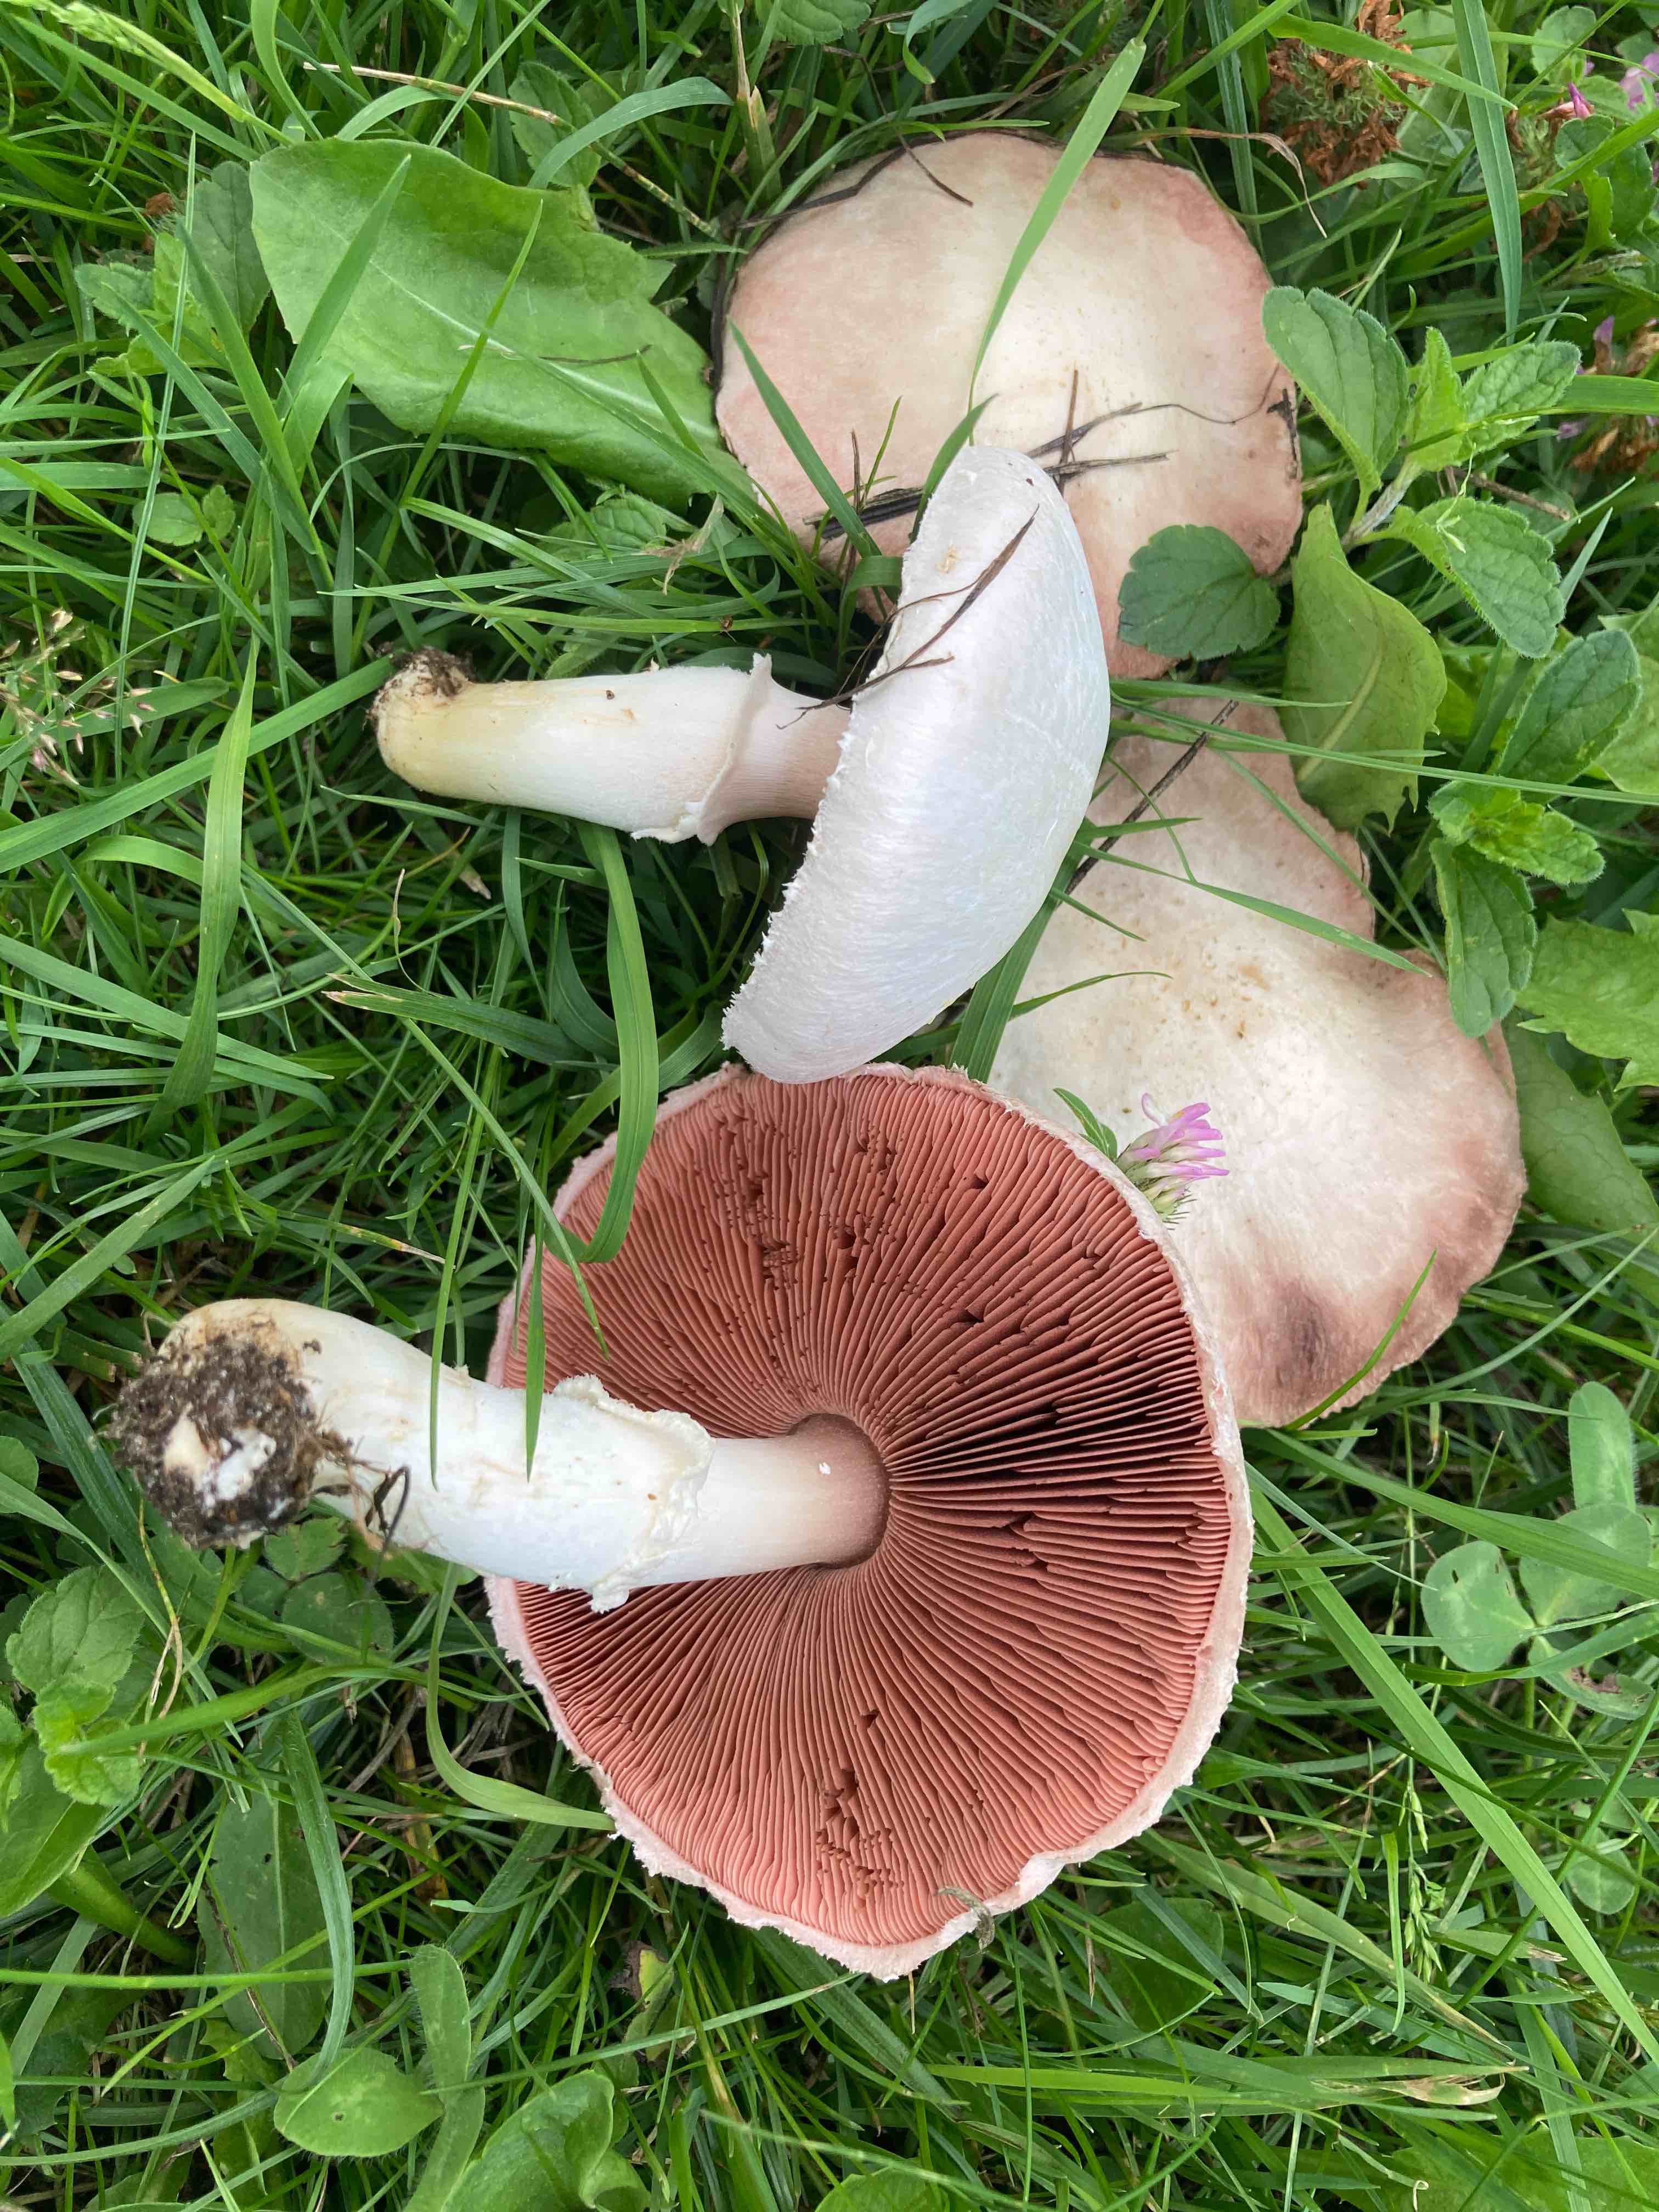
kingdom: Fungi
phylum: Basidiomycota
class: Agaricomycetes
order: Agaricales
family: Agaricaceae
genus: Agaricus
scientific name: Agaricus campestris
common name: mark-champignon
